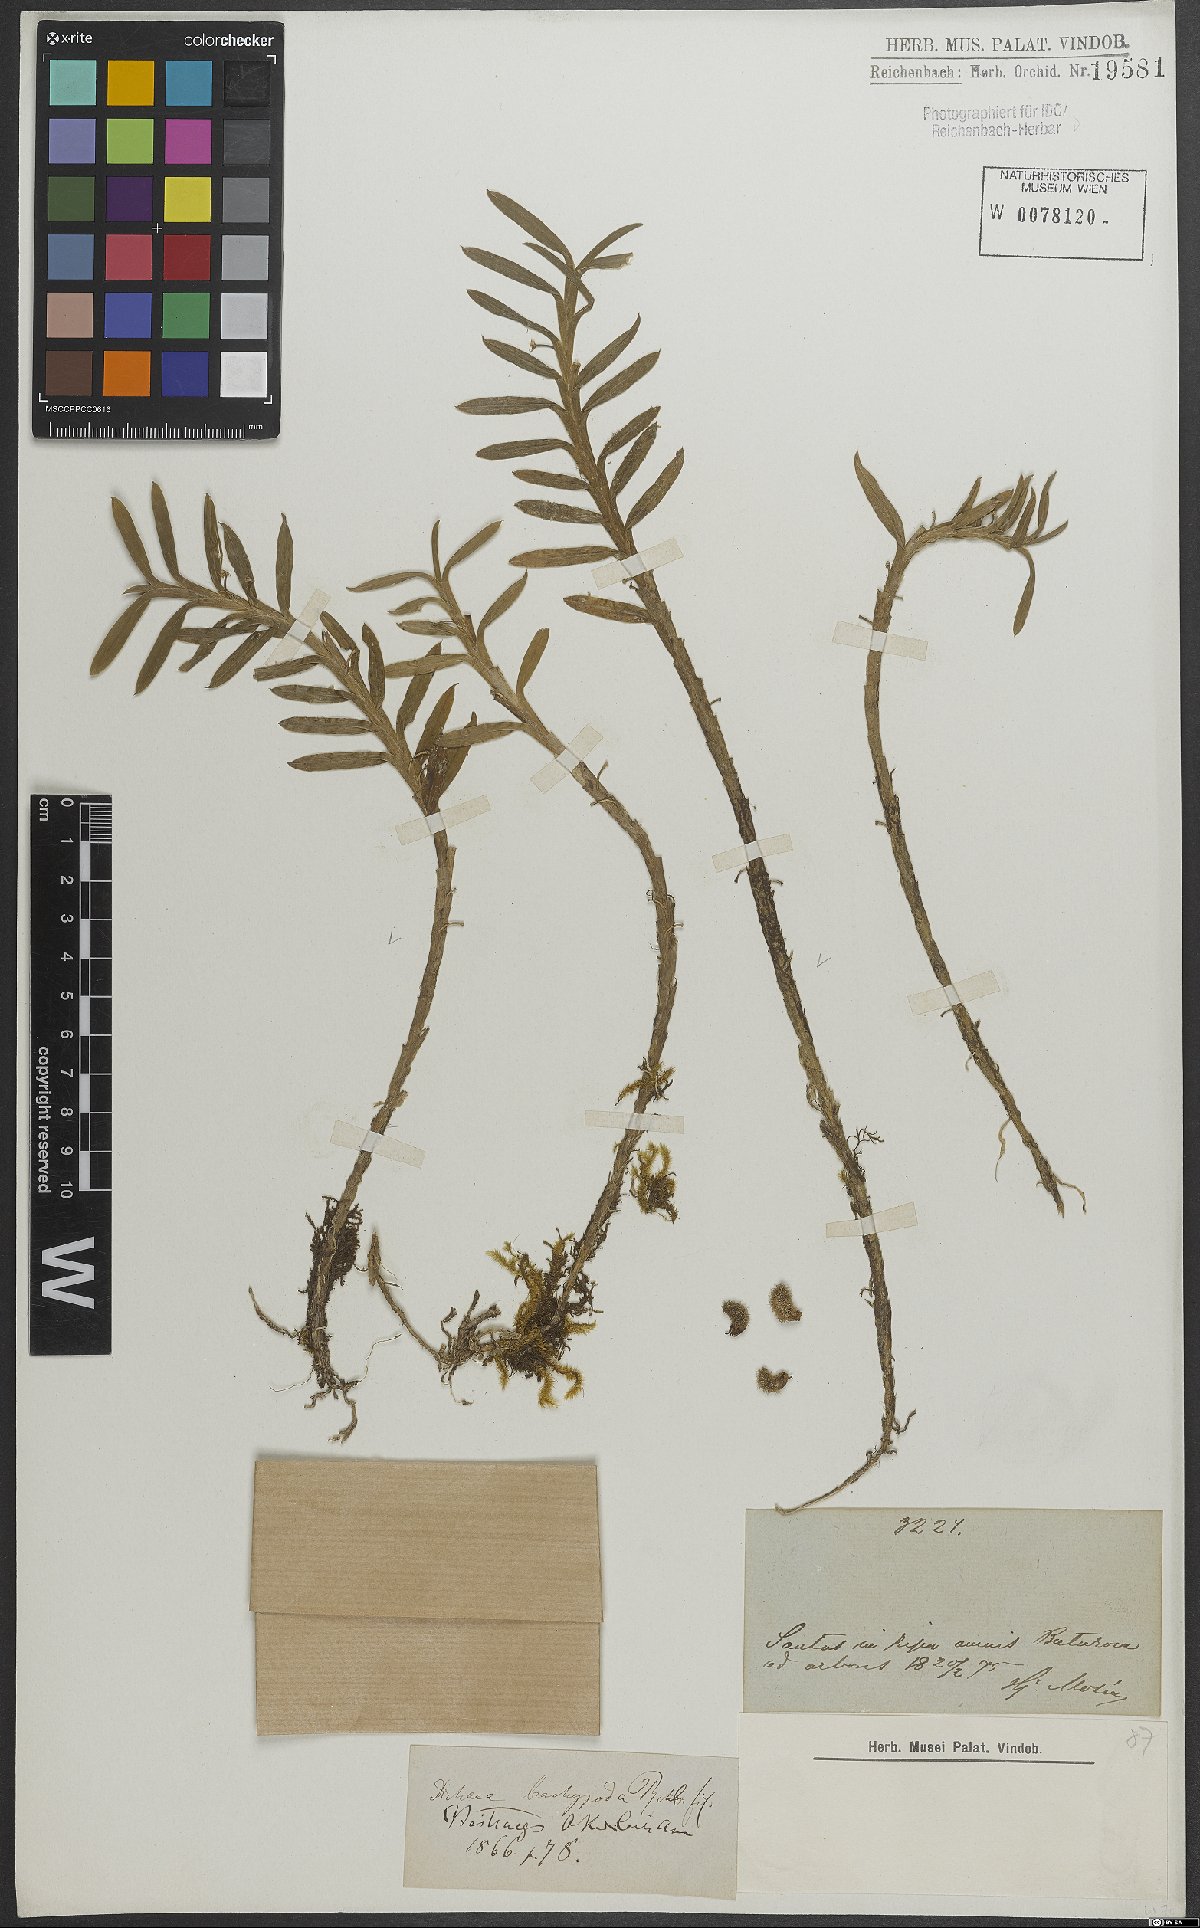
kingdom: Plantae
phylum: Tracheophyta
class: Liliopsida
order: Asparagales
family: Orchidaceae
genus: Dichaea
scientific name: Dichaea panamensis
